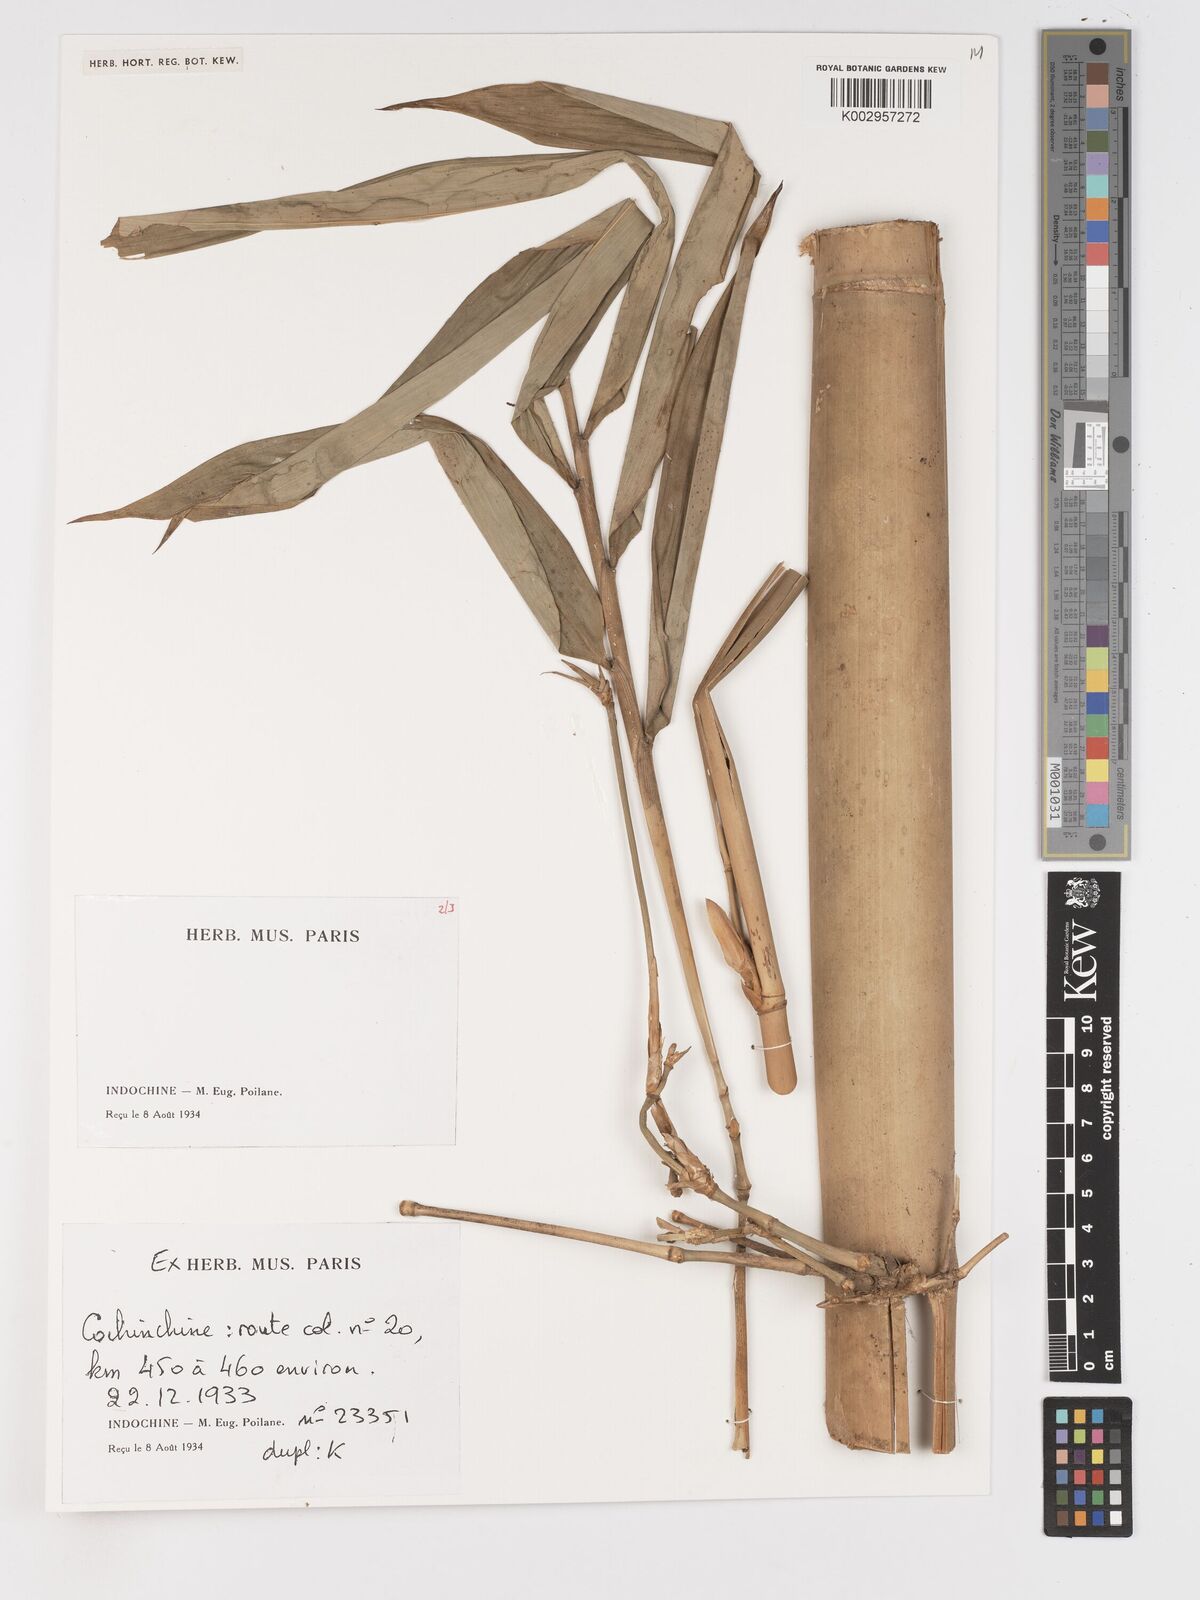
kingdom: Plantae
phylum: Tracheophyta
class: Liliopsida
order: Poales
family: Poaceae
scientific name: Poaceae
